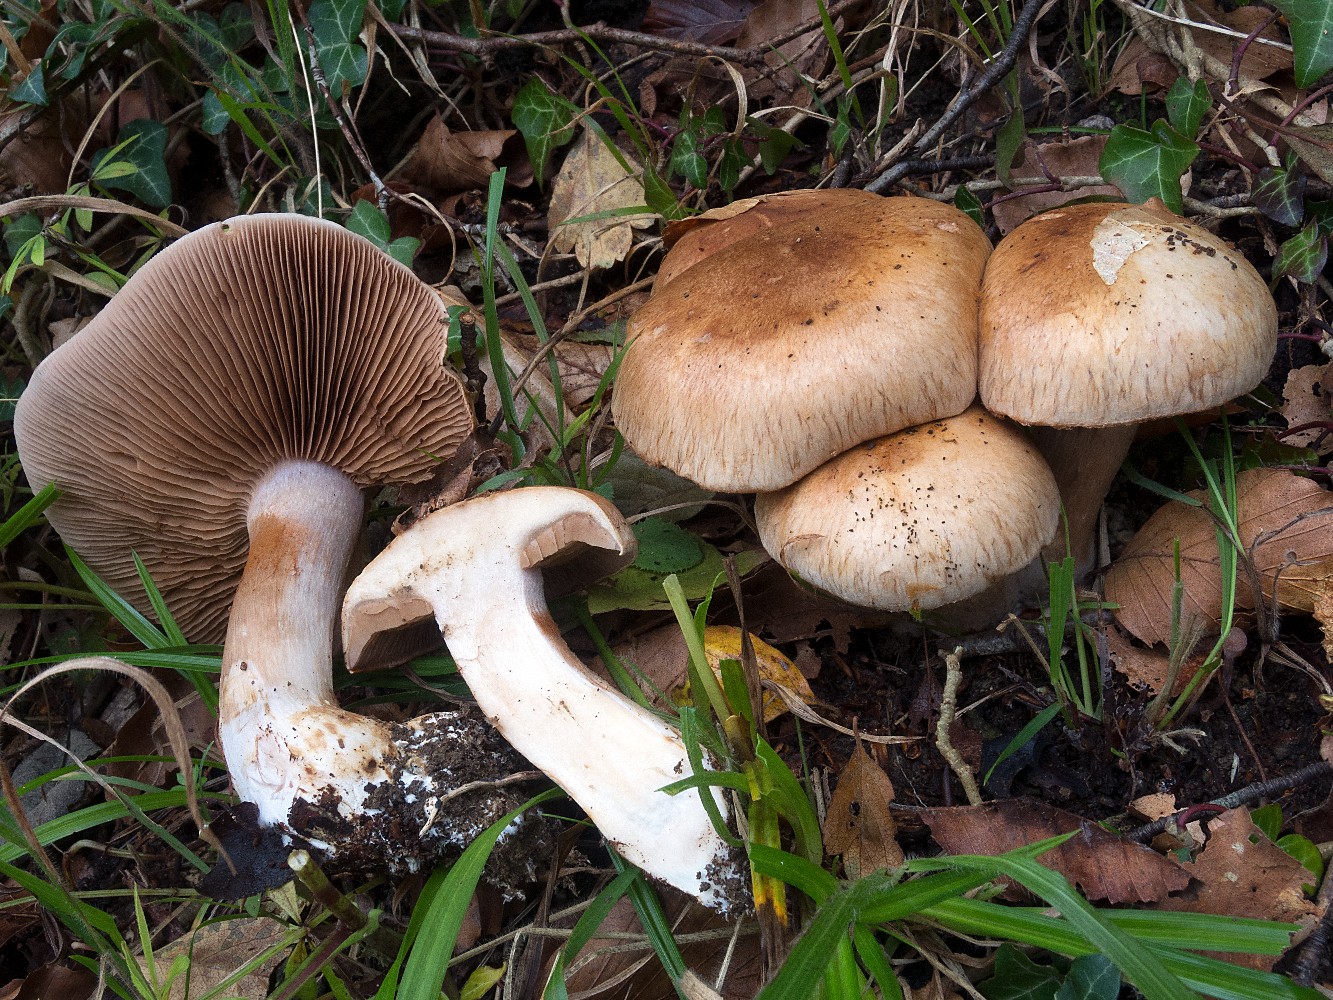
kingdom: Fungi
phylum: Basidiomycota
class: Agaricomycetes
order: Agaricales
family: Cortinariaceae
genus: Phlegmacium
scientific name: Phlegmacium pseudodaulnoyae
